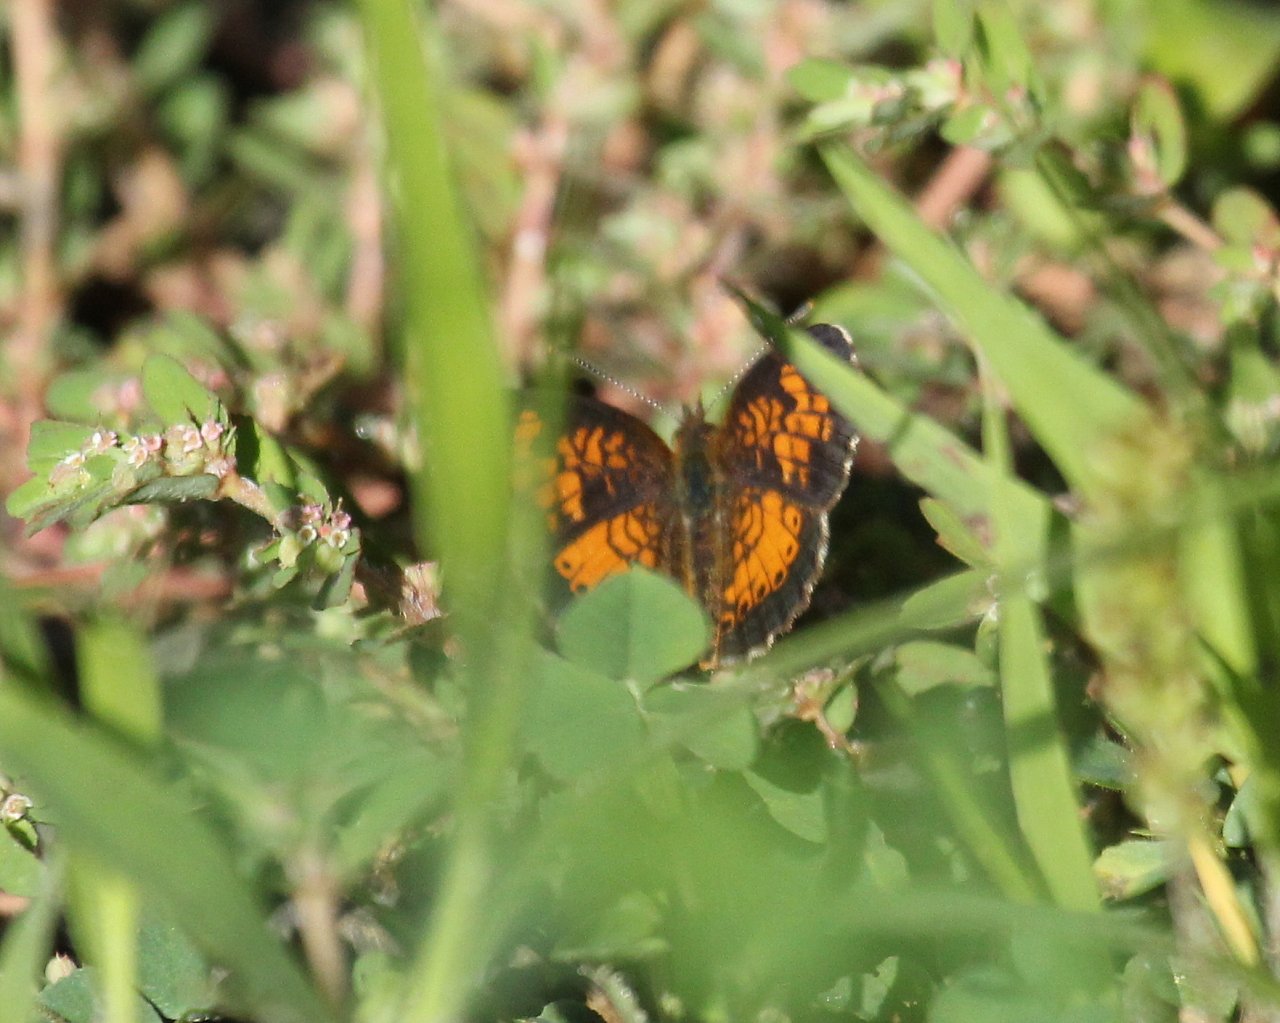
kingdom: Animalia
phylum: Arthropoda
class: Insecta
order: Lepidoptera
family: Nymphalidae
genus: Phyciodes
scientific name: Phyciodes tharos
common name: Northern Crescent
